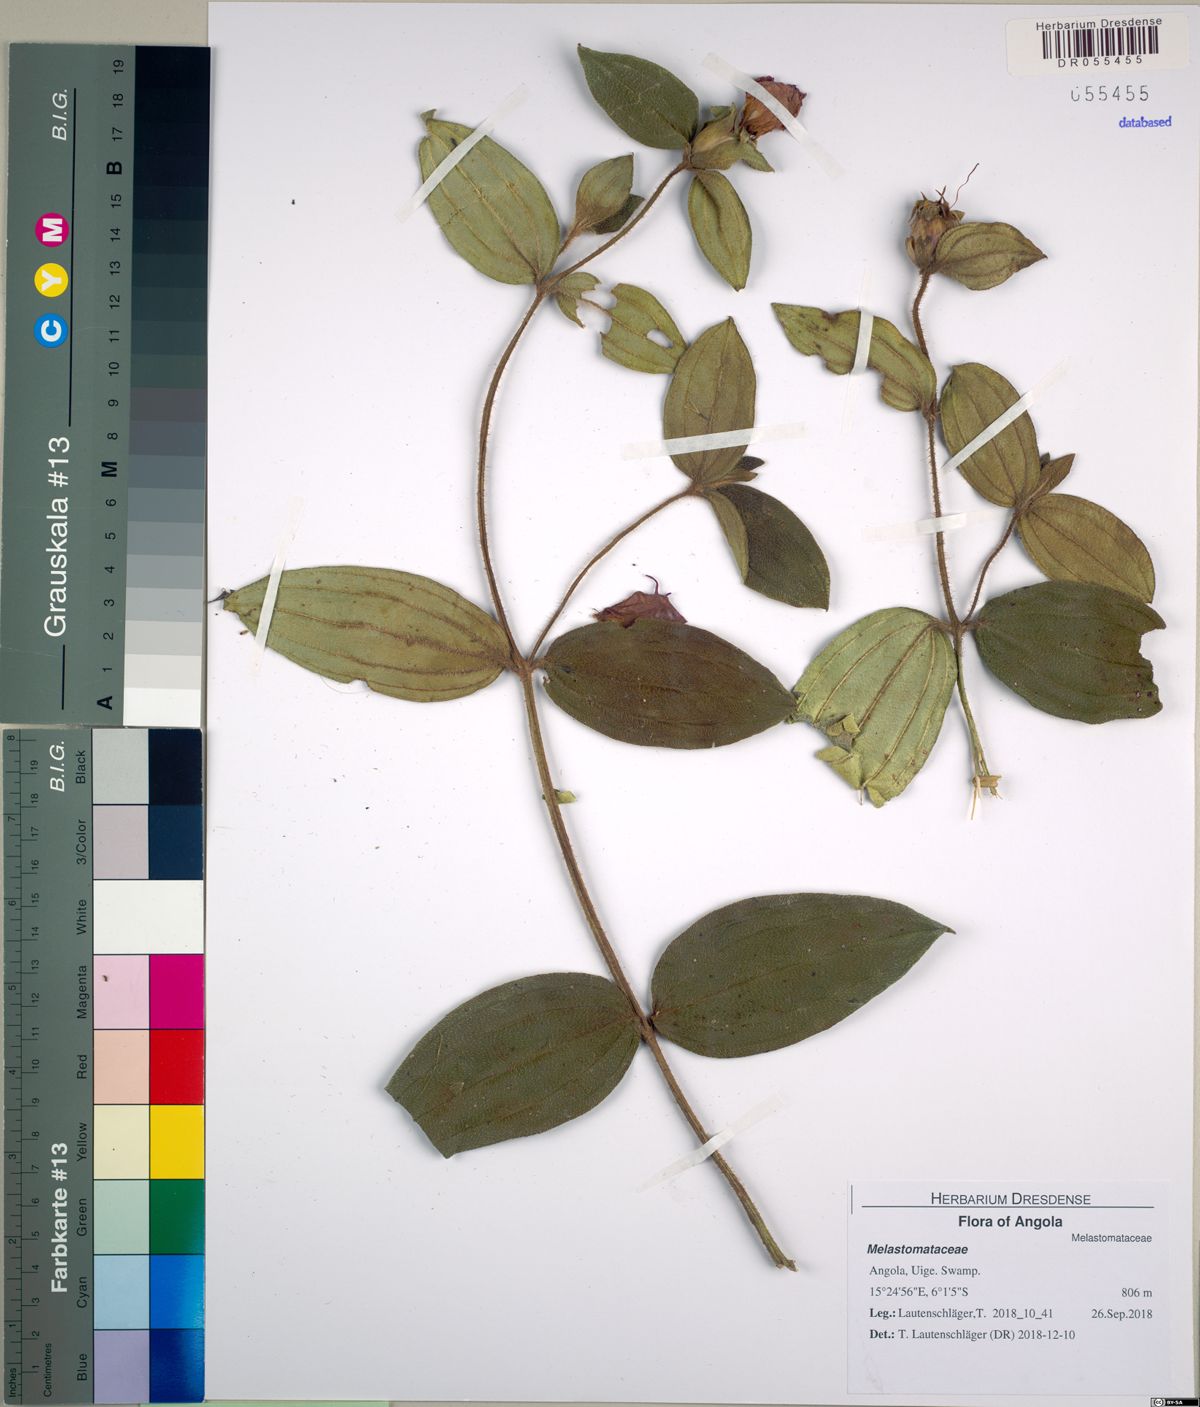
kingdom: Plantae
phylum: Tracheophyta
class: Magnoliopsida
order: Myrtales
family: Melastomataceae
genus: Melastomastrum
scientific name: Melastomastrum
